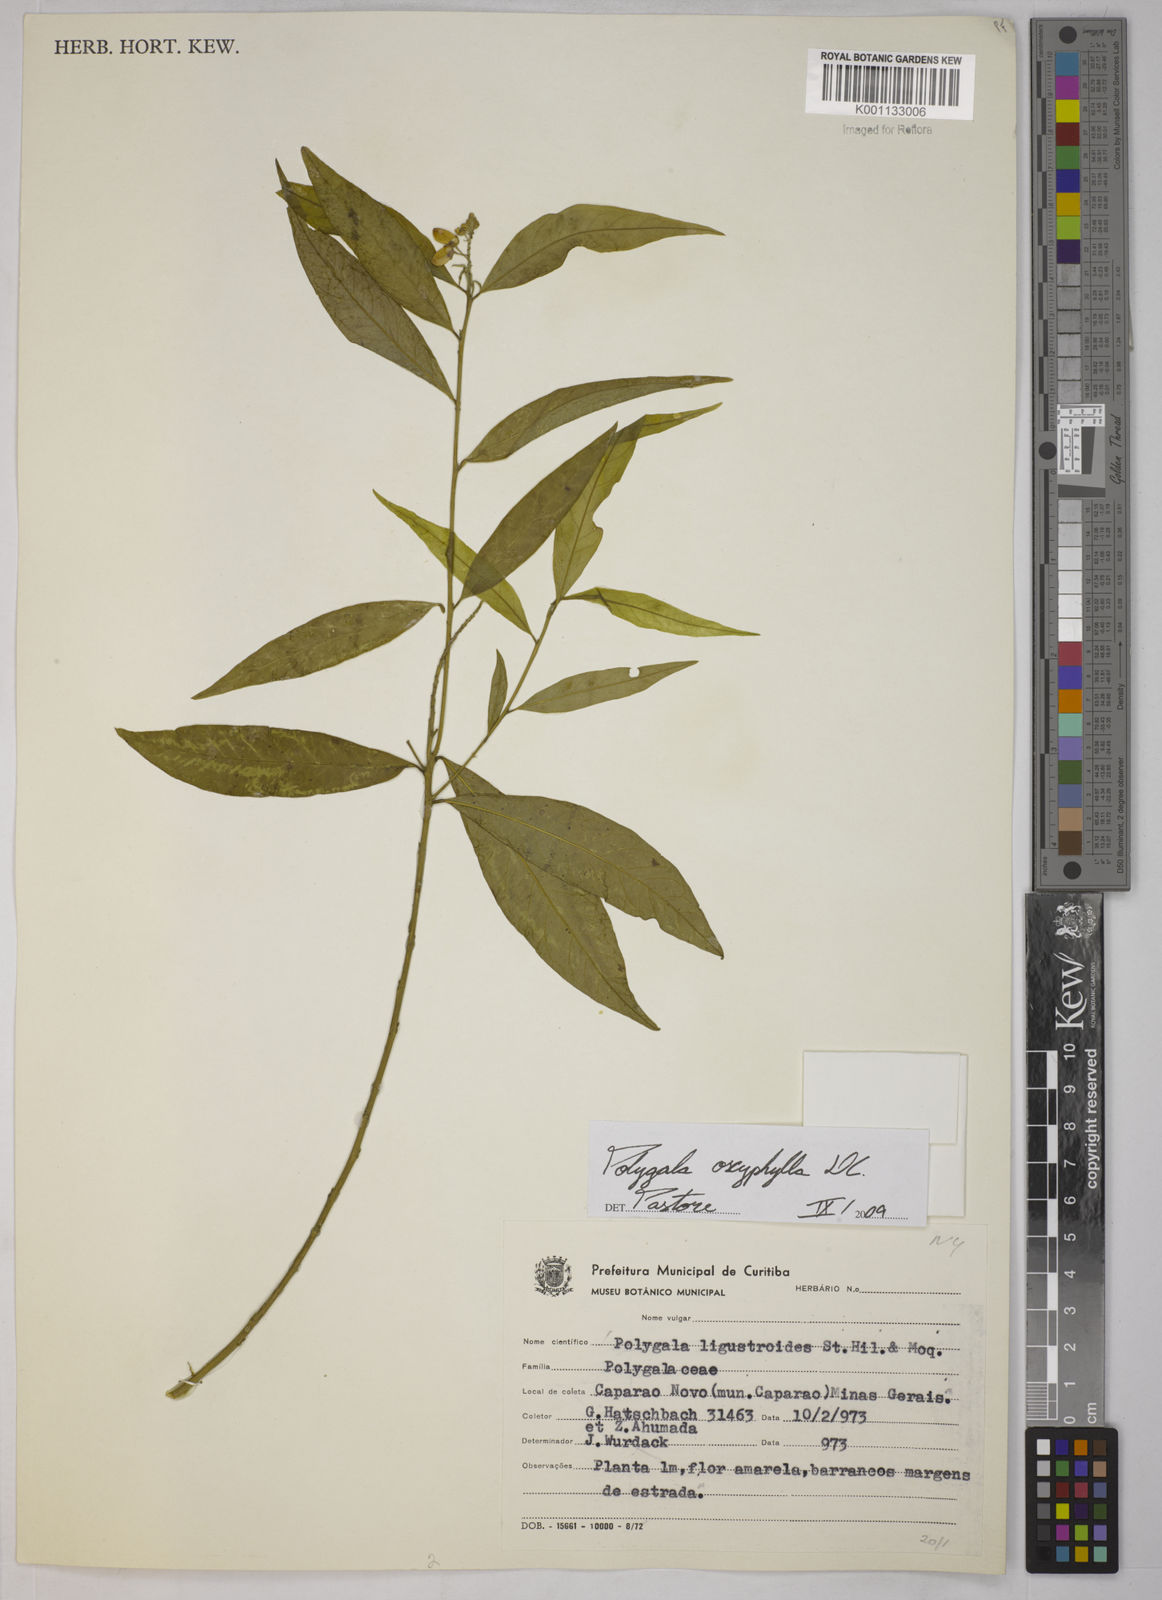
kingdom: Plantae
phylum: Tracheophyta
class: Magnoliopsida
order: Fabales
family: Polygalaceae
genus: Caamembeca
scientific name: Caamembeca oxyphylla
